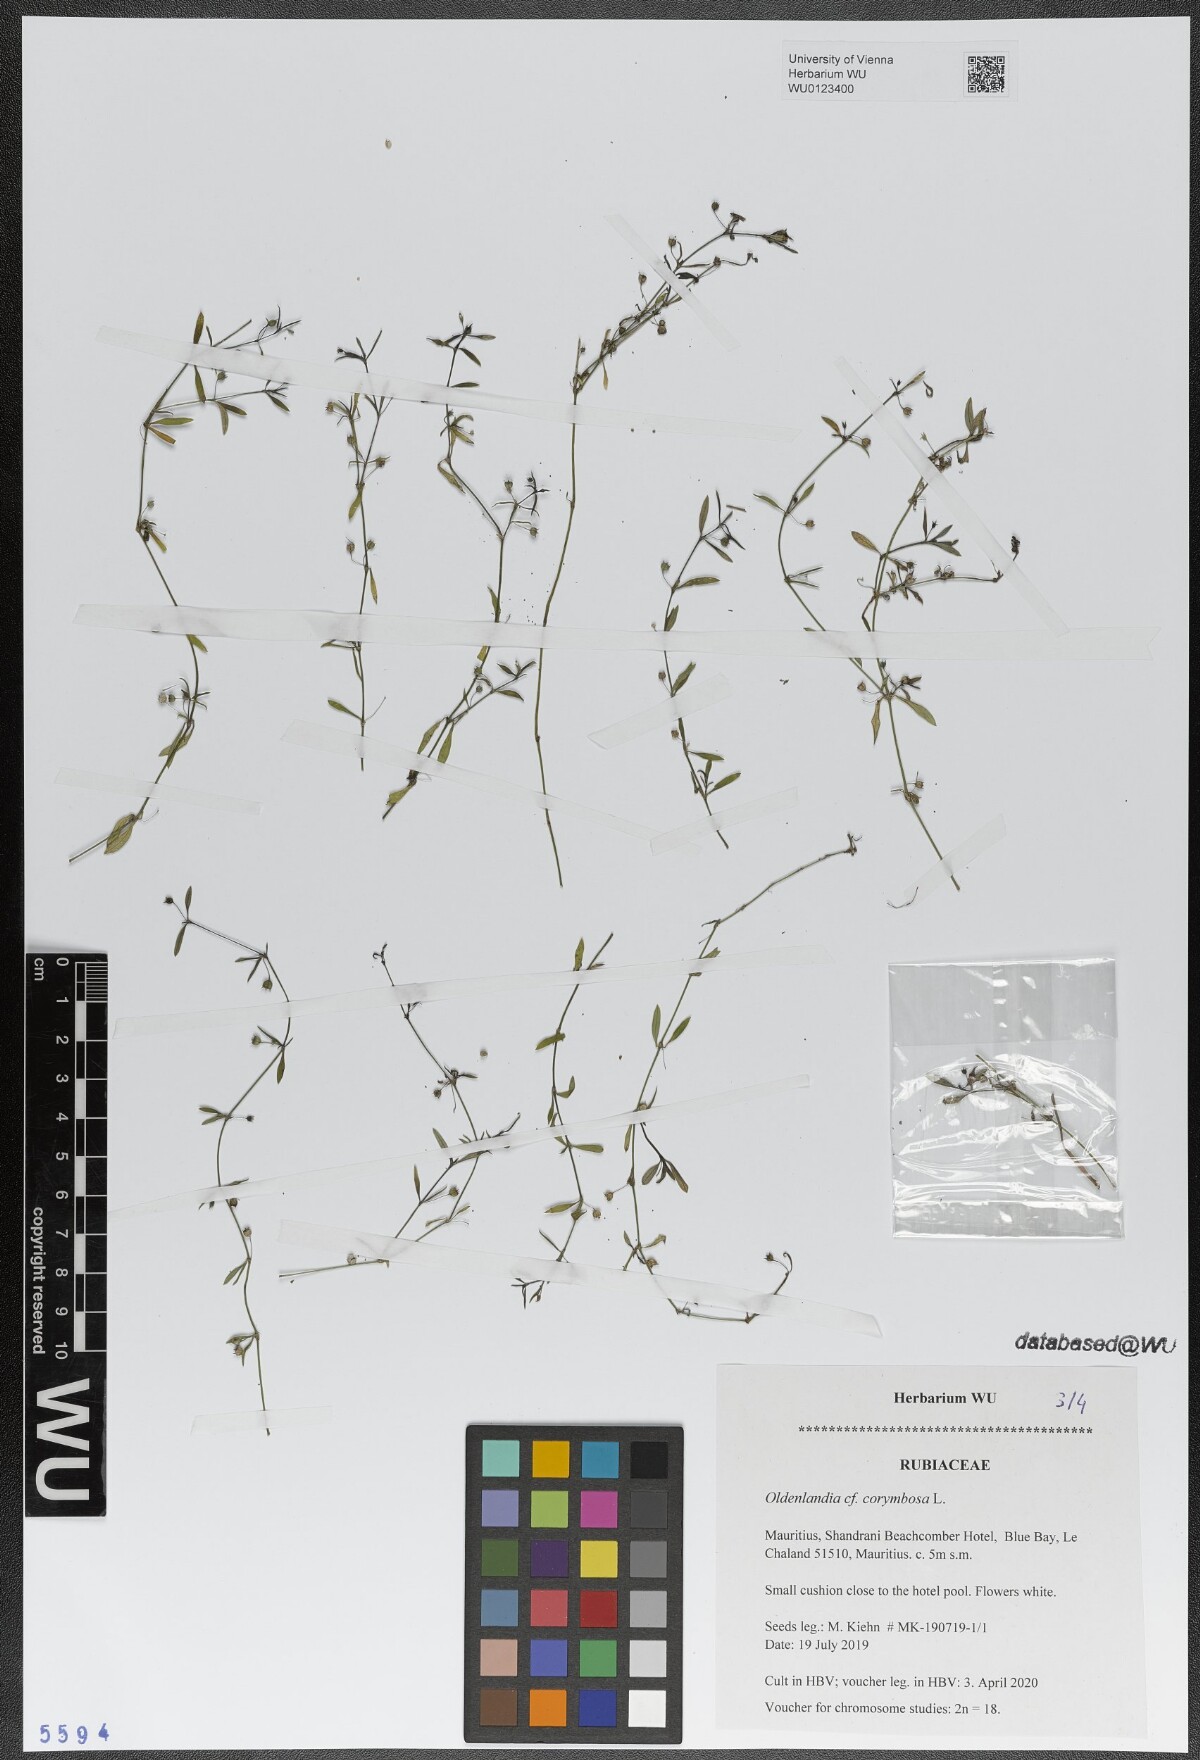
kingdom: Plantae
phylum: Tracheophyta
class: Magnoliopsida
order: Gentianales
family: Rubiaceae
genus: Oldenlandia
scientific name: Oldenlandia corymbosa
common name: Flat-top mille graines
